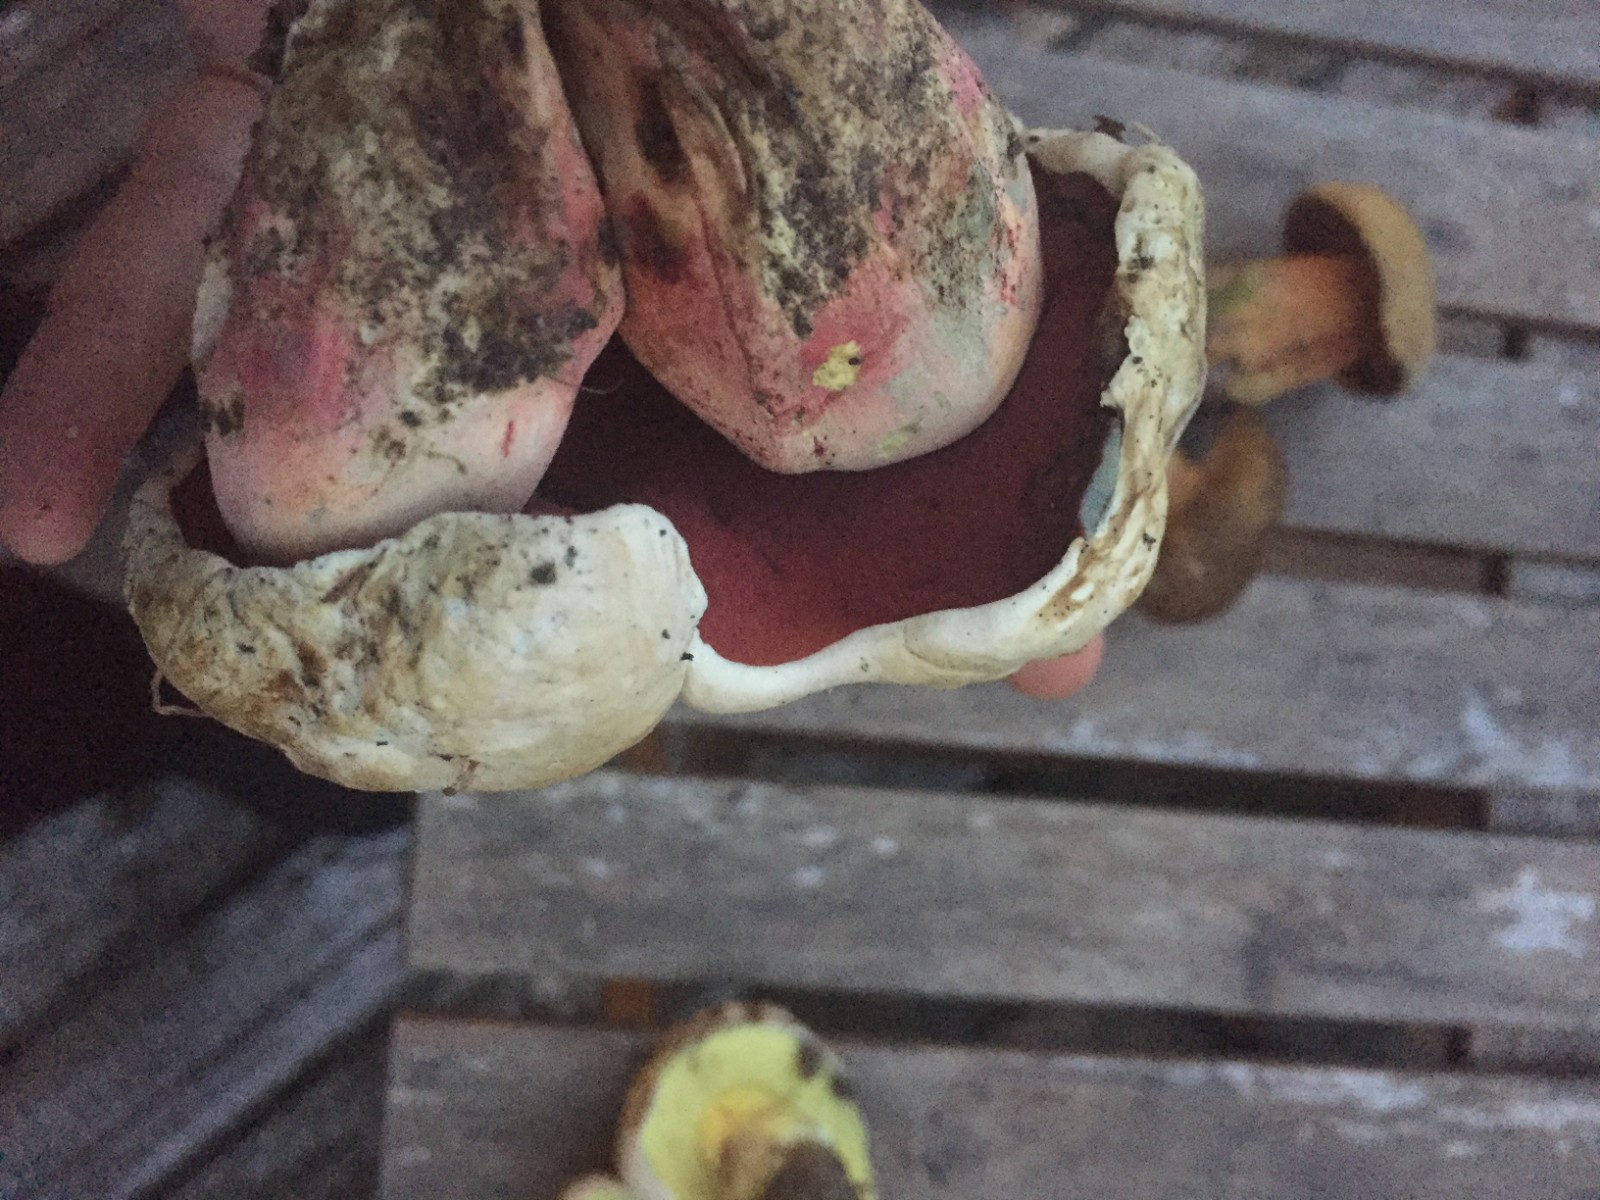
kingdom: Fungi
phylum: Basidiomycota
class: Agaricomycetes
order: Boletales
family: Boletaceae
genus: Rubroboletus
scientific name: Rubroboletus satanas
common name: Satans rørhat
